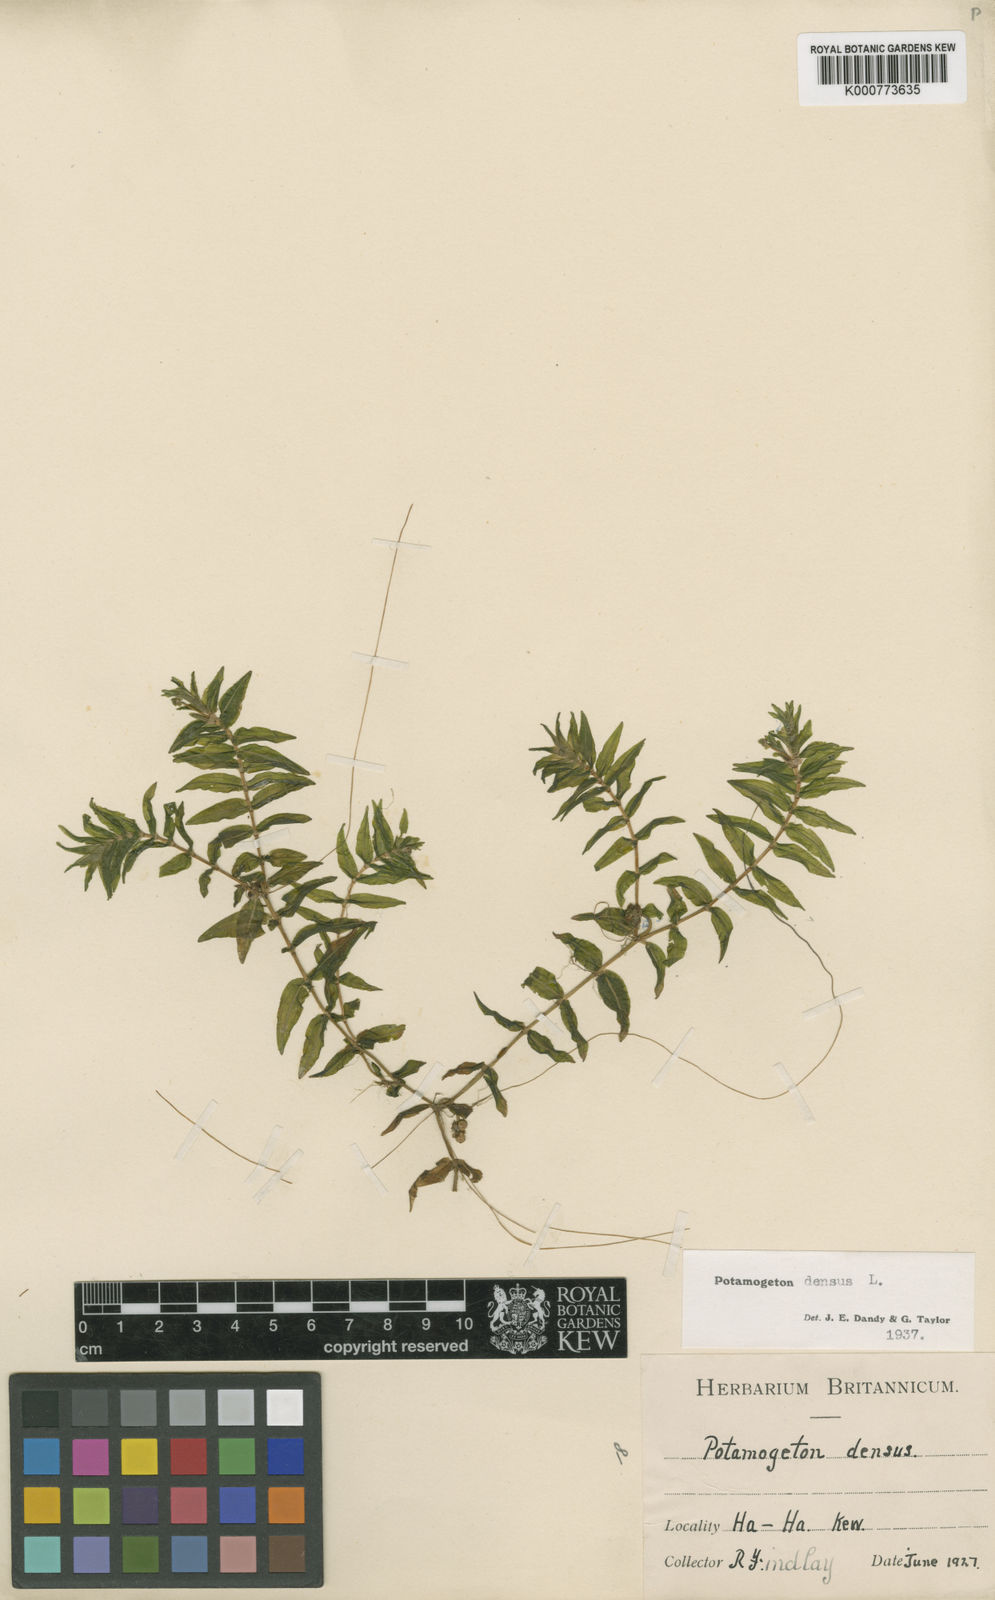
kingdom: Plantae
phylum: Tracheophyta
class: Liliopsida
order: Alismatales
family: Potamogetonaceae
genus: Groenlandia
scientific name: Groenlandia densa
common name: Opposite-leaved pondweed
